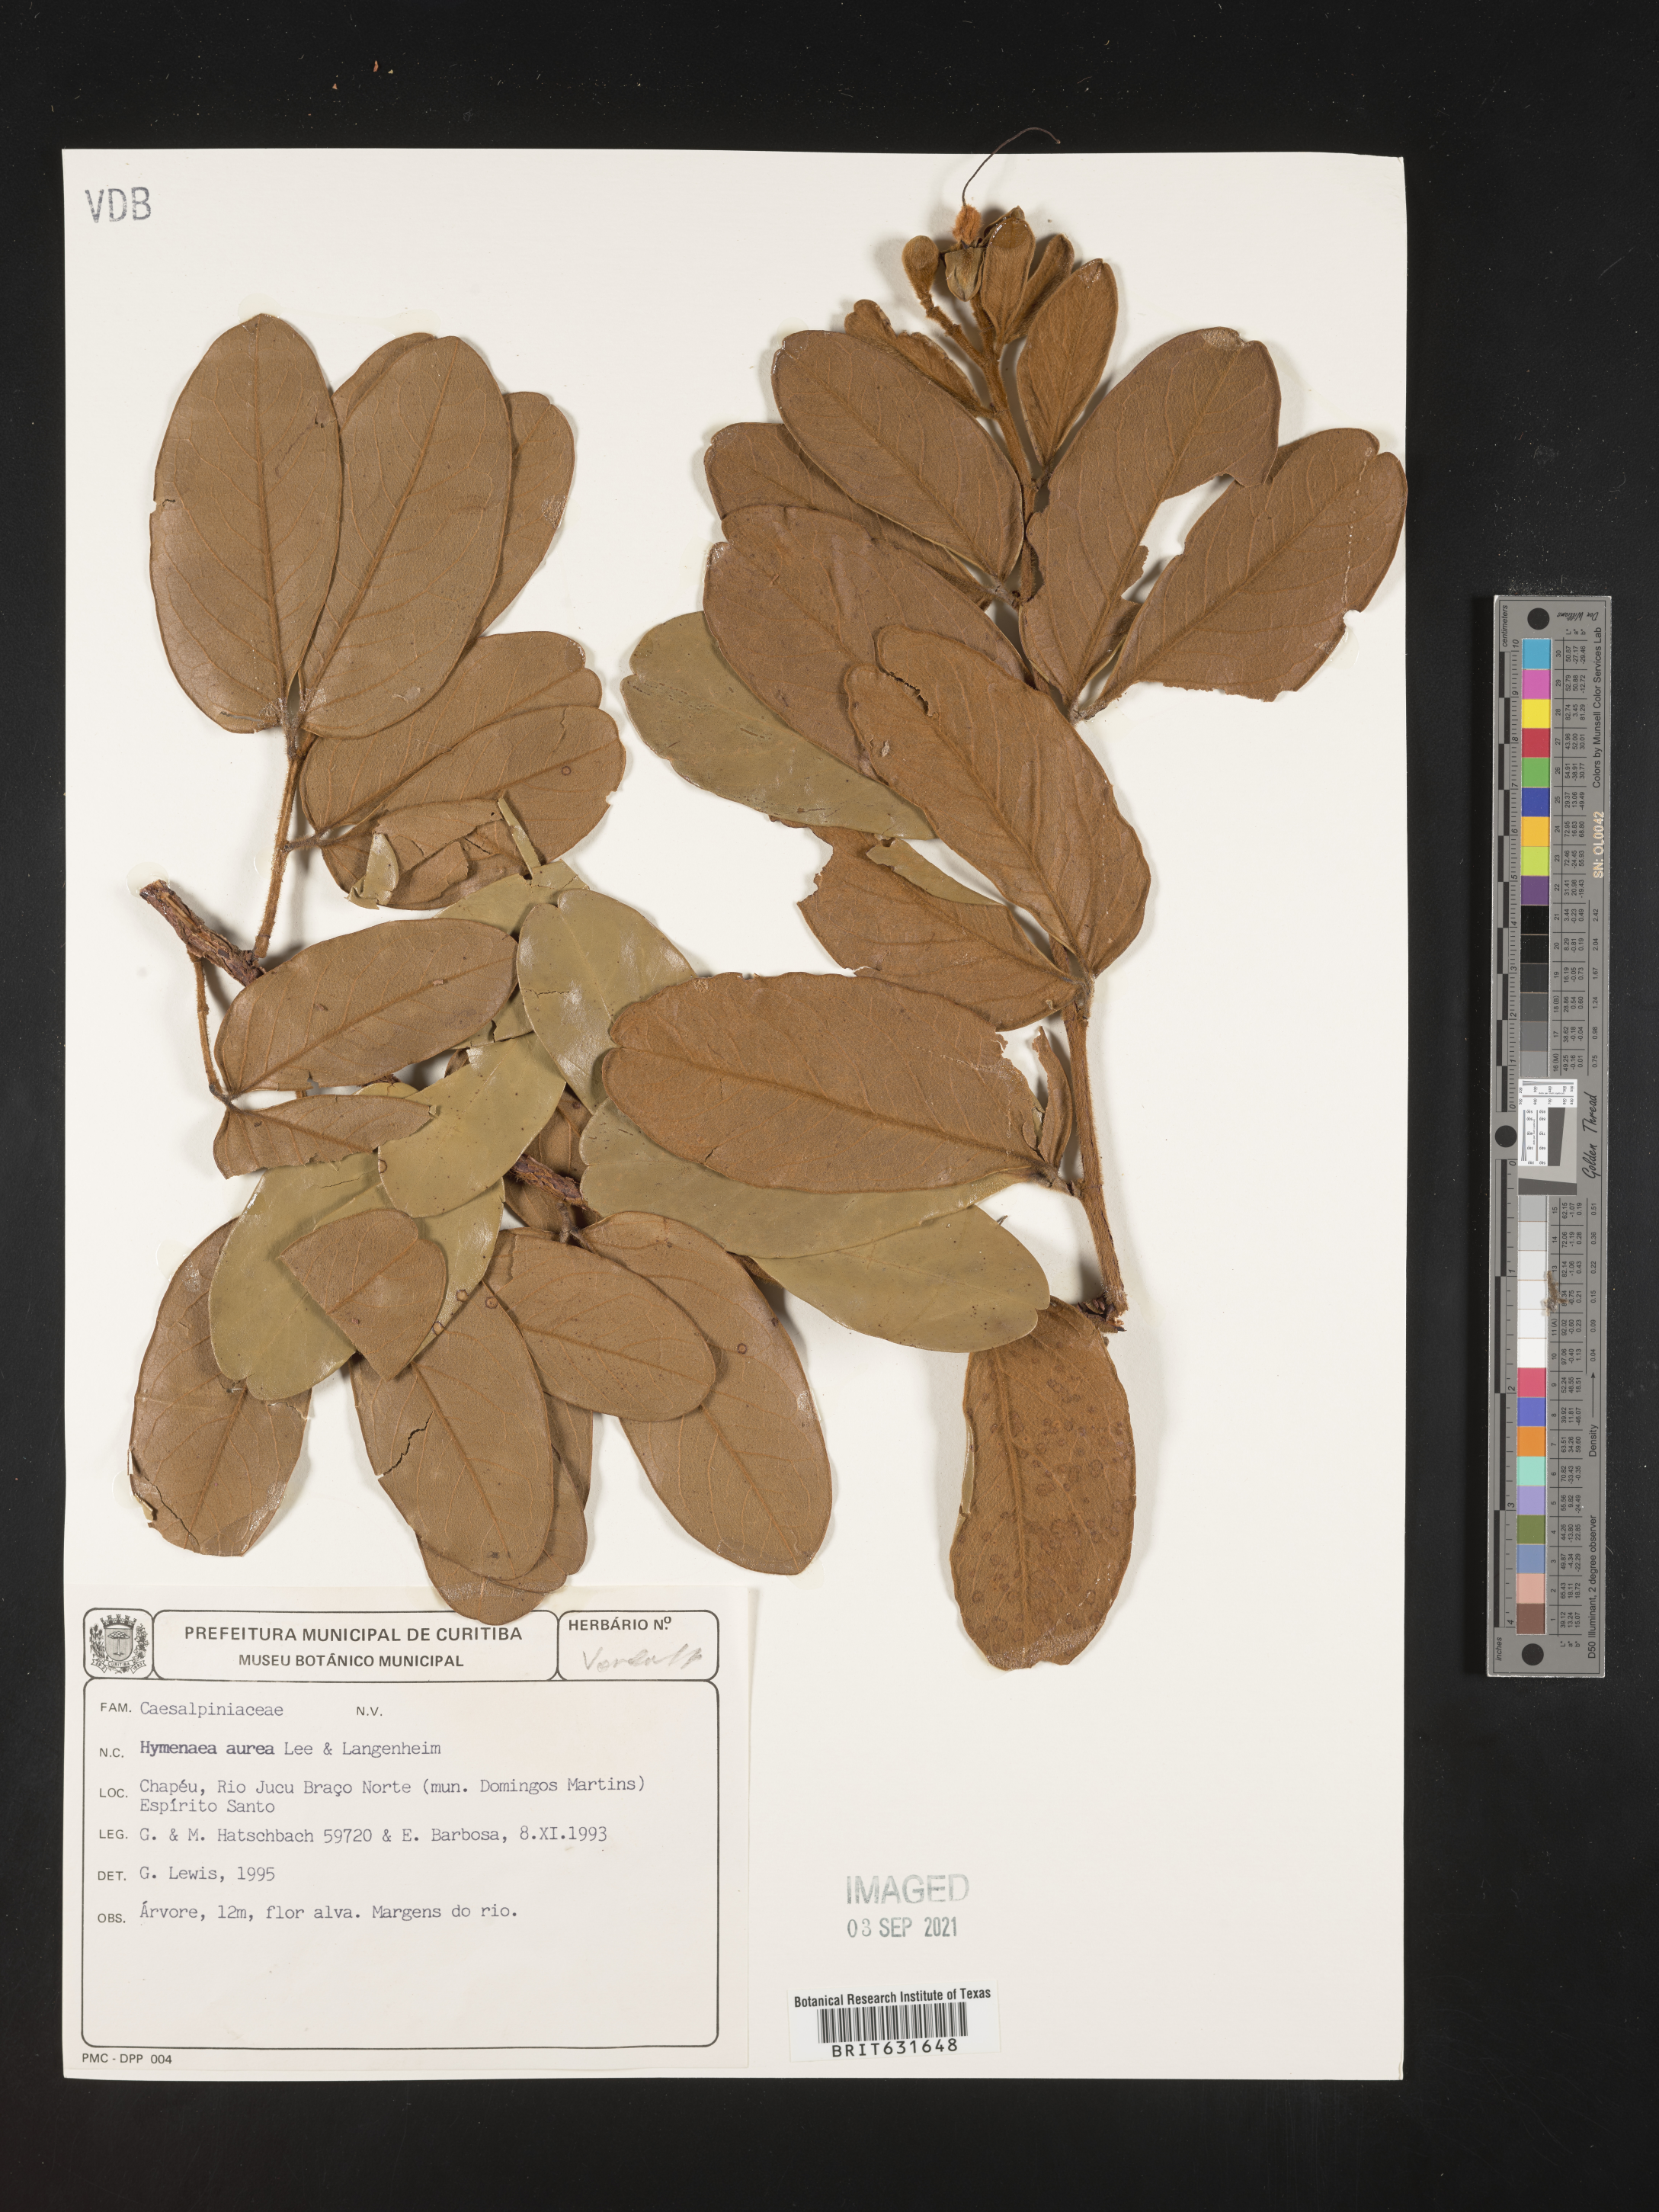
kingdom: Plantae
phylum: Tracheophyta
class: Magnoliopsida
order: Fabales
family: Fabaceae
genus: Hymenaea
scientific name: Hymenaea
